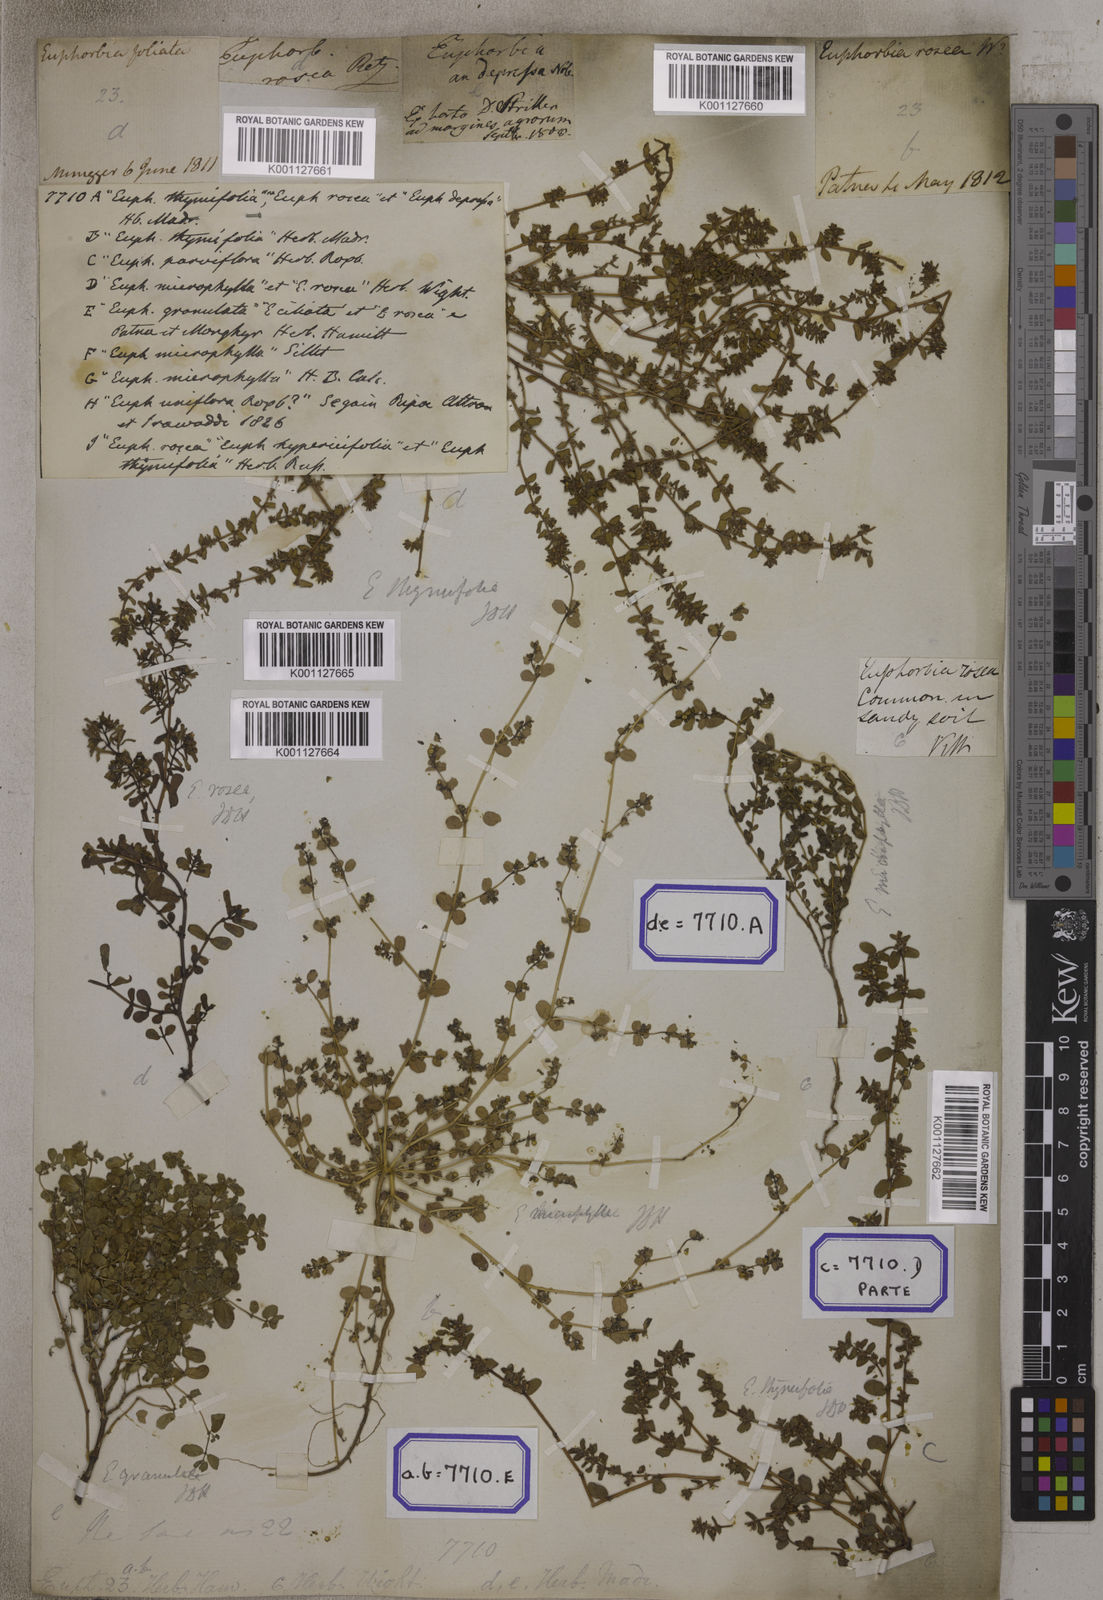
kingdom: Plantae
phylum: Tracheophyta
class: Magnoliopsida
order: Malpighiales
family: Euphorbiaceae
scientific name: Euphorbiaceae
